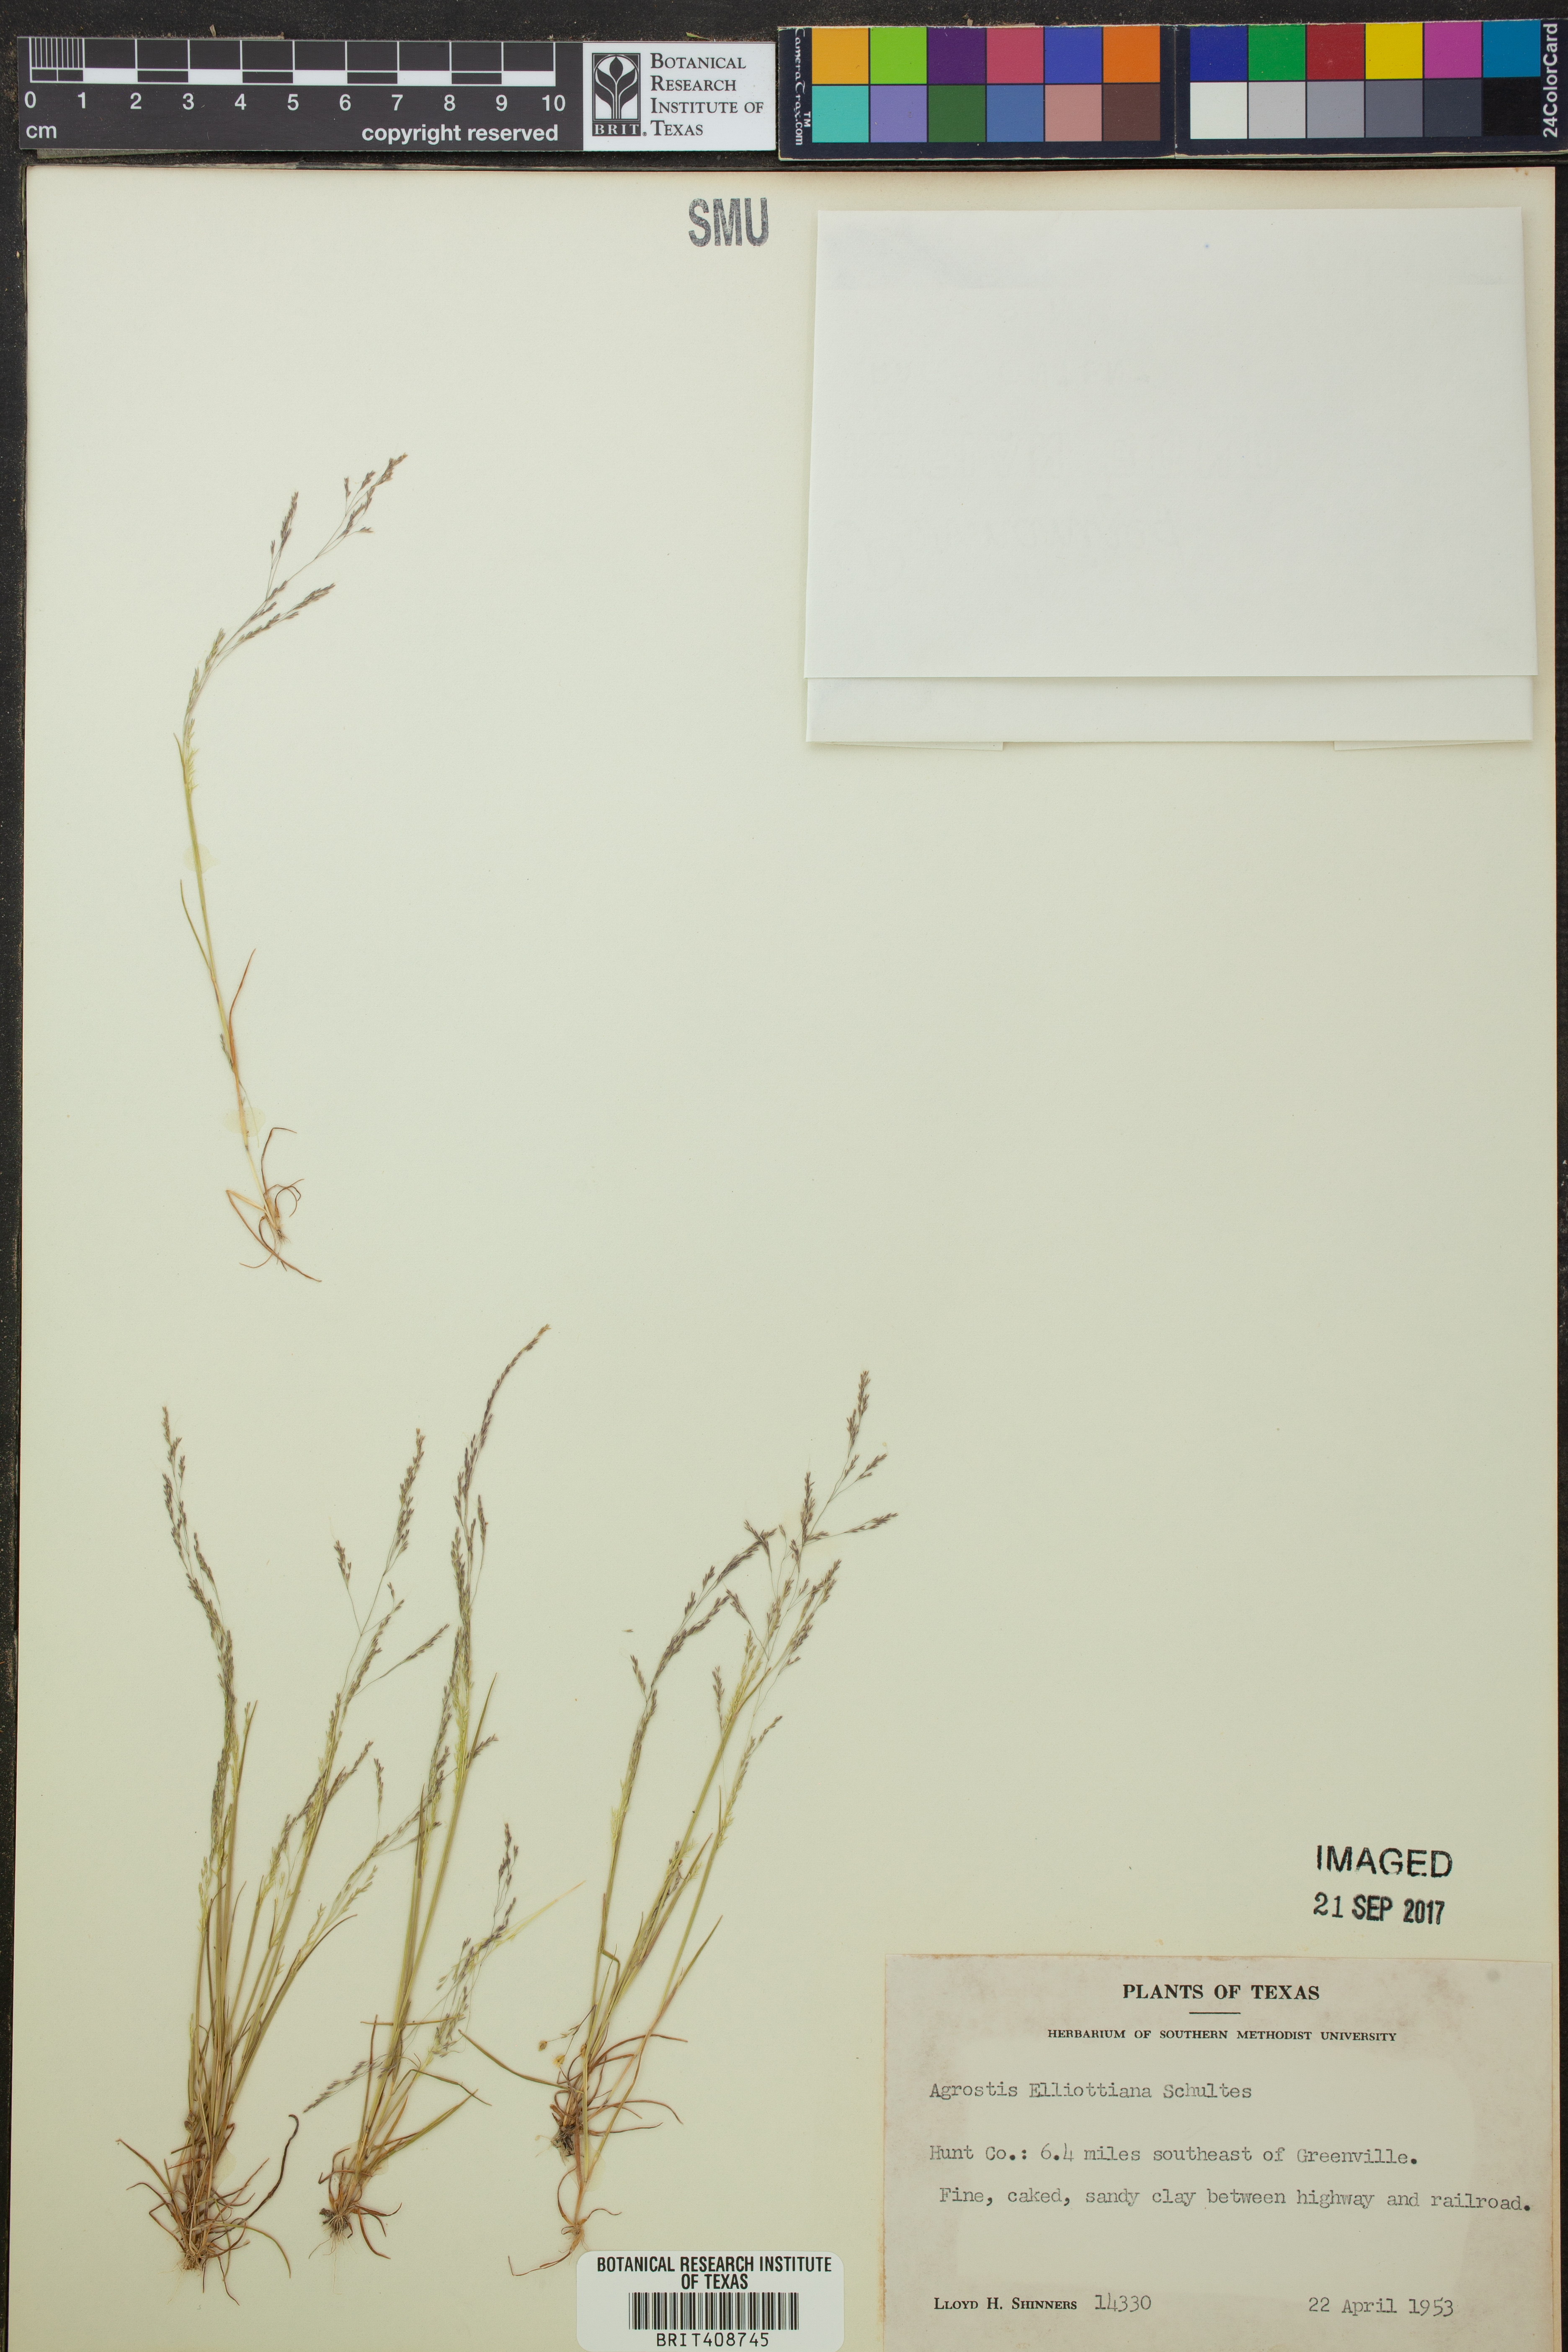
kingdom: Plantae
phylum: Tracheophyta
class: Liliopsida
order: Poales
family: Poaceae
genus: Agrostis
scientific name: Agrostis elliottiana
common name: Elliott's bent
